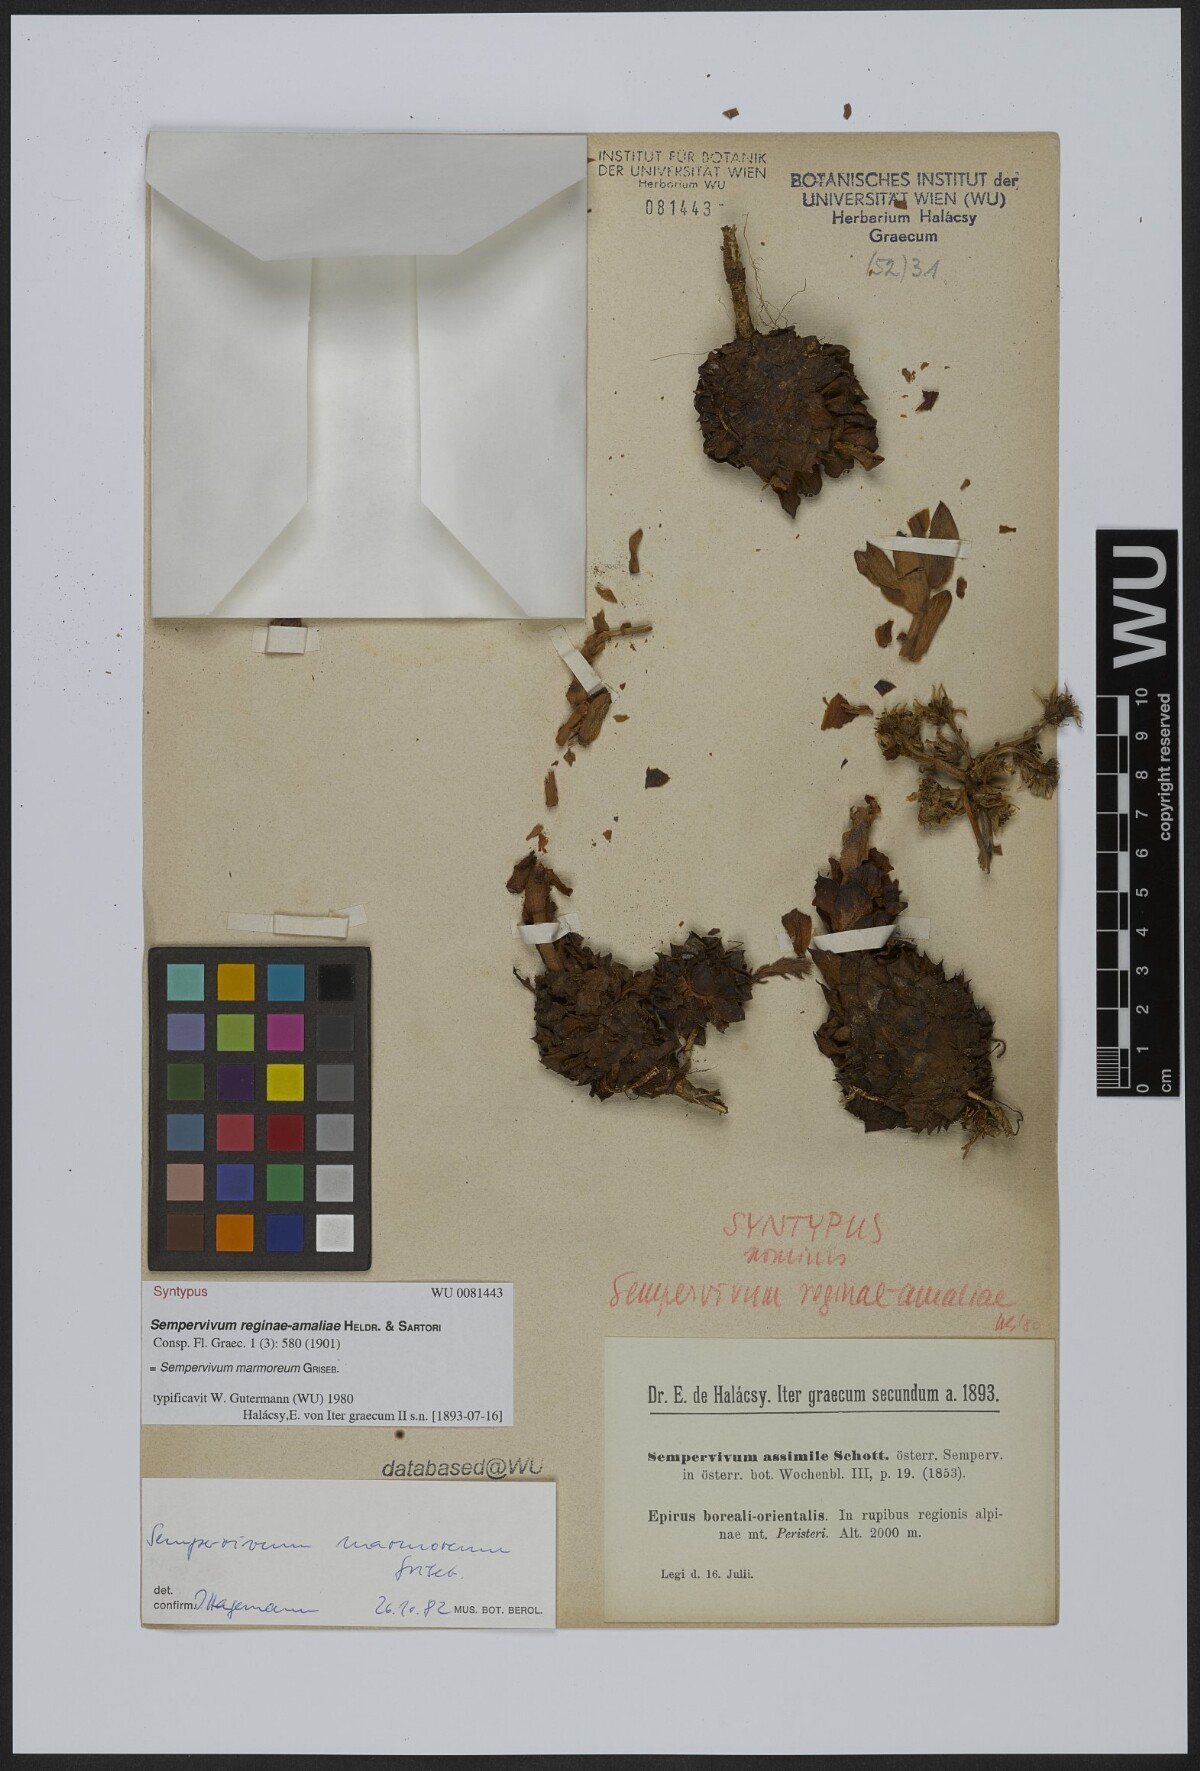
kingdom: Plantae
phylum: Tracheophyta
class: Magnoliopsida
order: Saxifragales
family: Crassulaceae
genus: Sempervivum
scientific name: Sempervivum verereginae-amaliae
